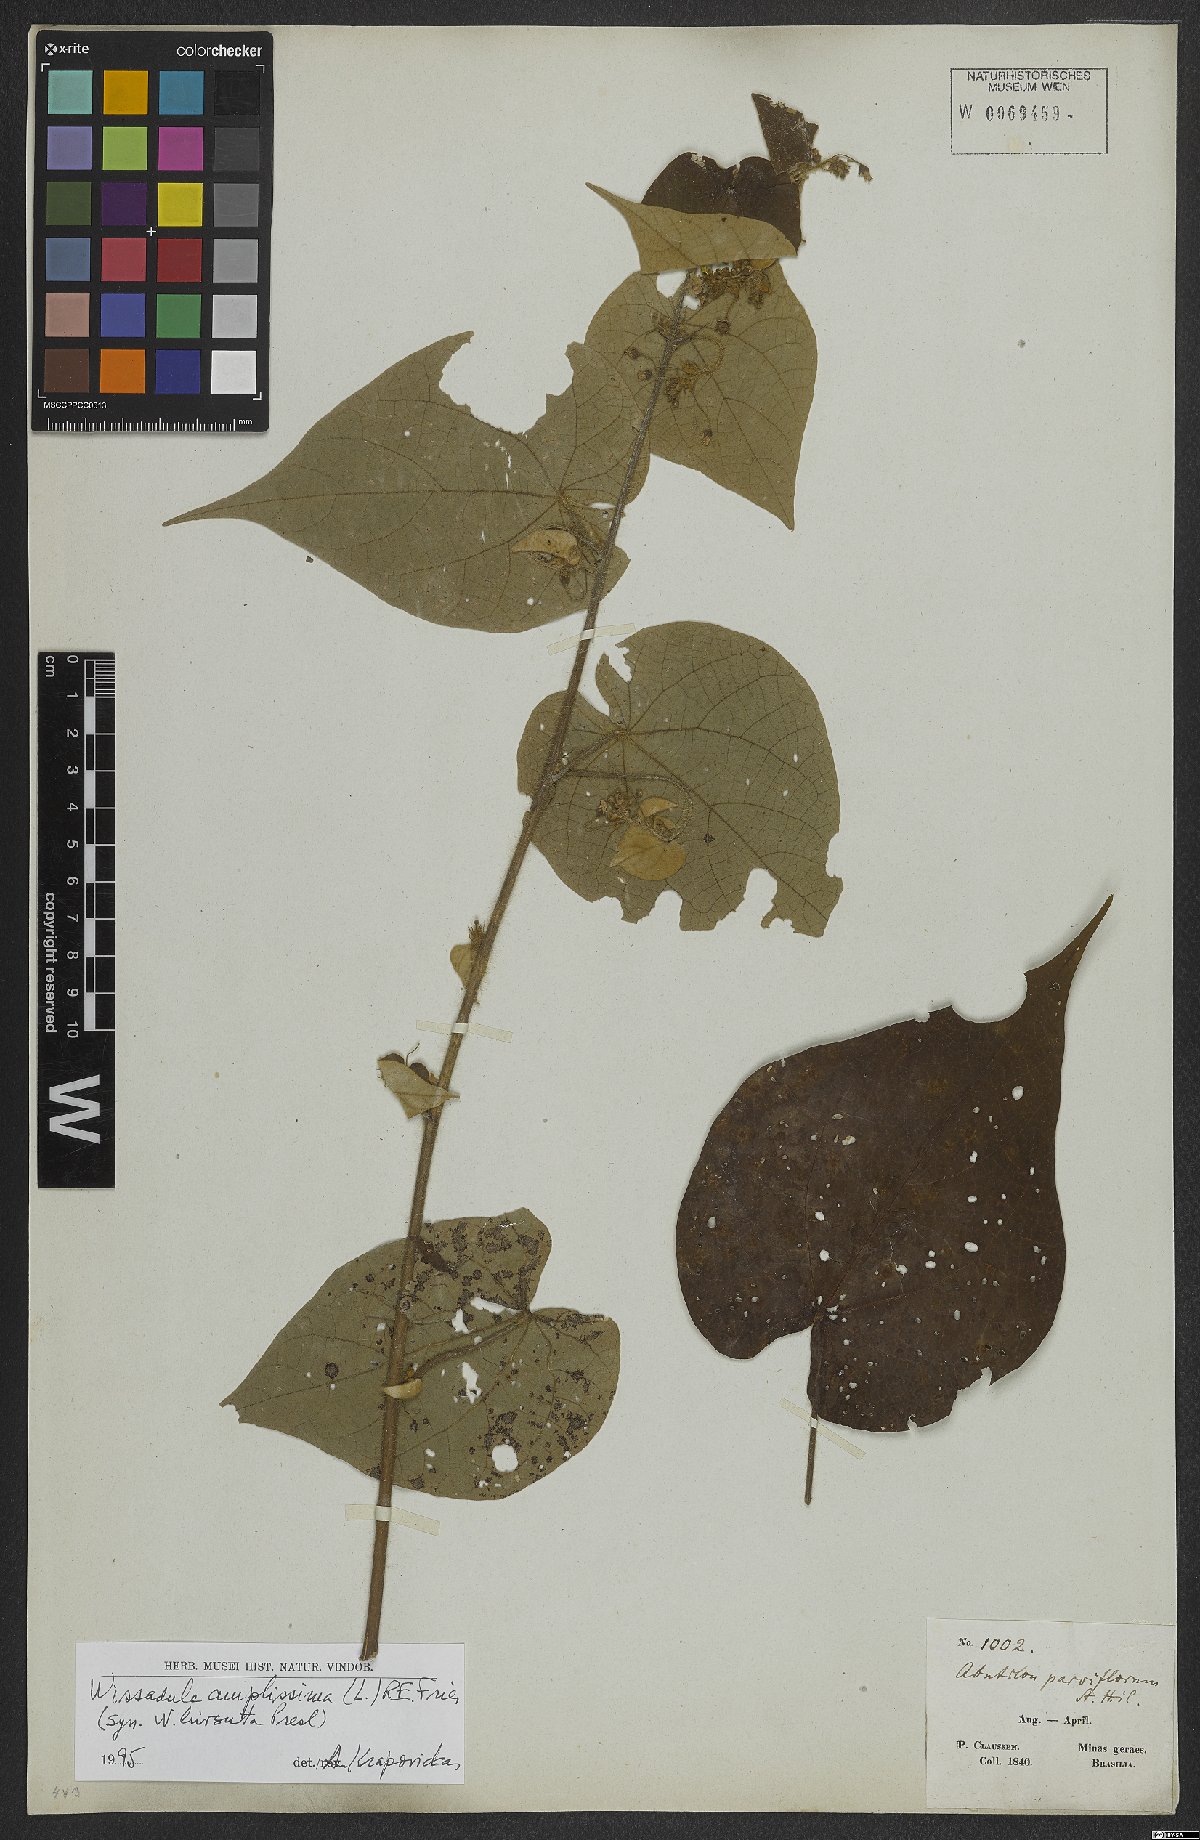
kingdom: Plantae
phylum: Tracheophyta
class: Magnoliopsida
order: Malvales
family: Malvaceae
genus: Wissadula
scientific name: Wissadula amplissima
